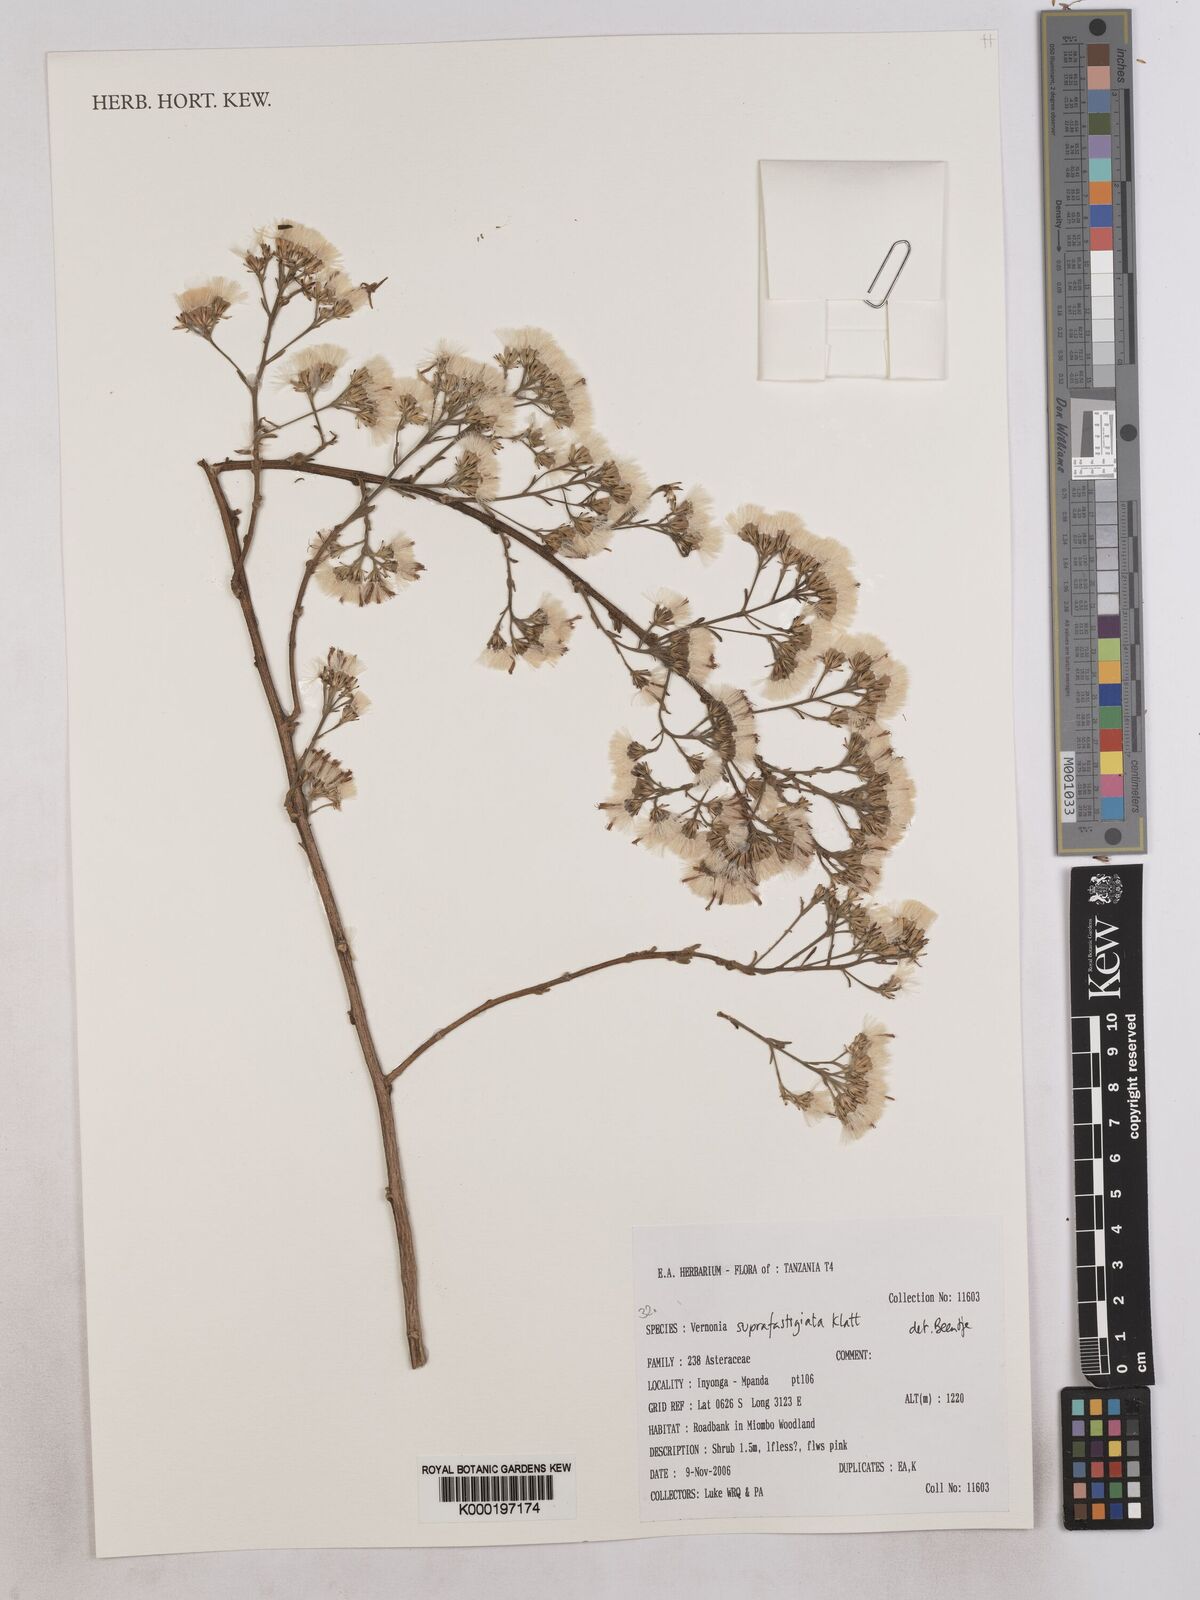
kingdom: Plantae
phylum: Tracheophyta
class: Magnoliopsida
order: Asterales
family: Asteraceae
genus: Vernonia
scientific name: Vernonia suprafastigiata
